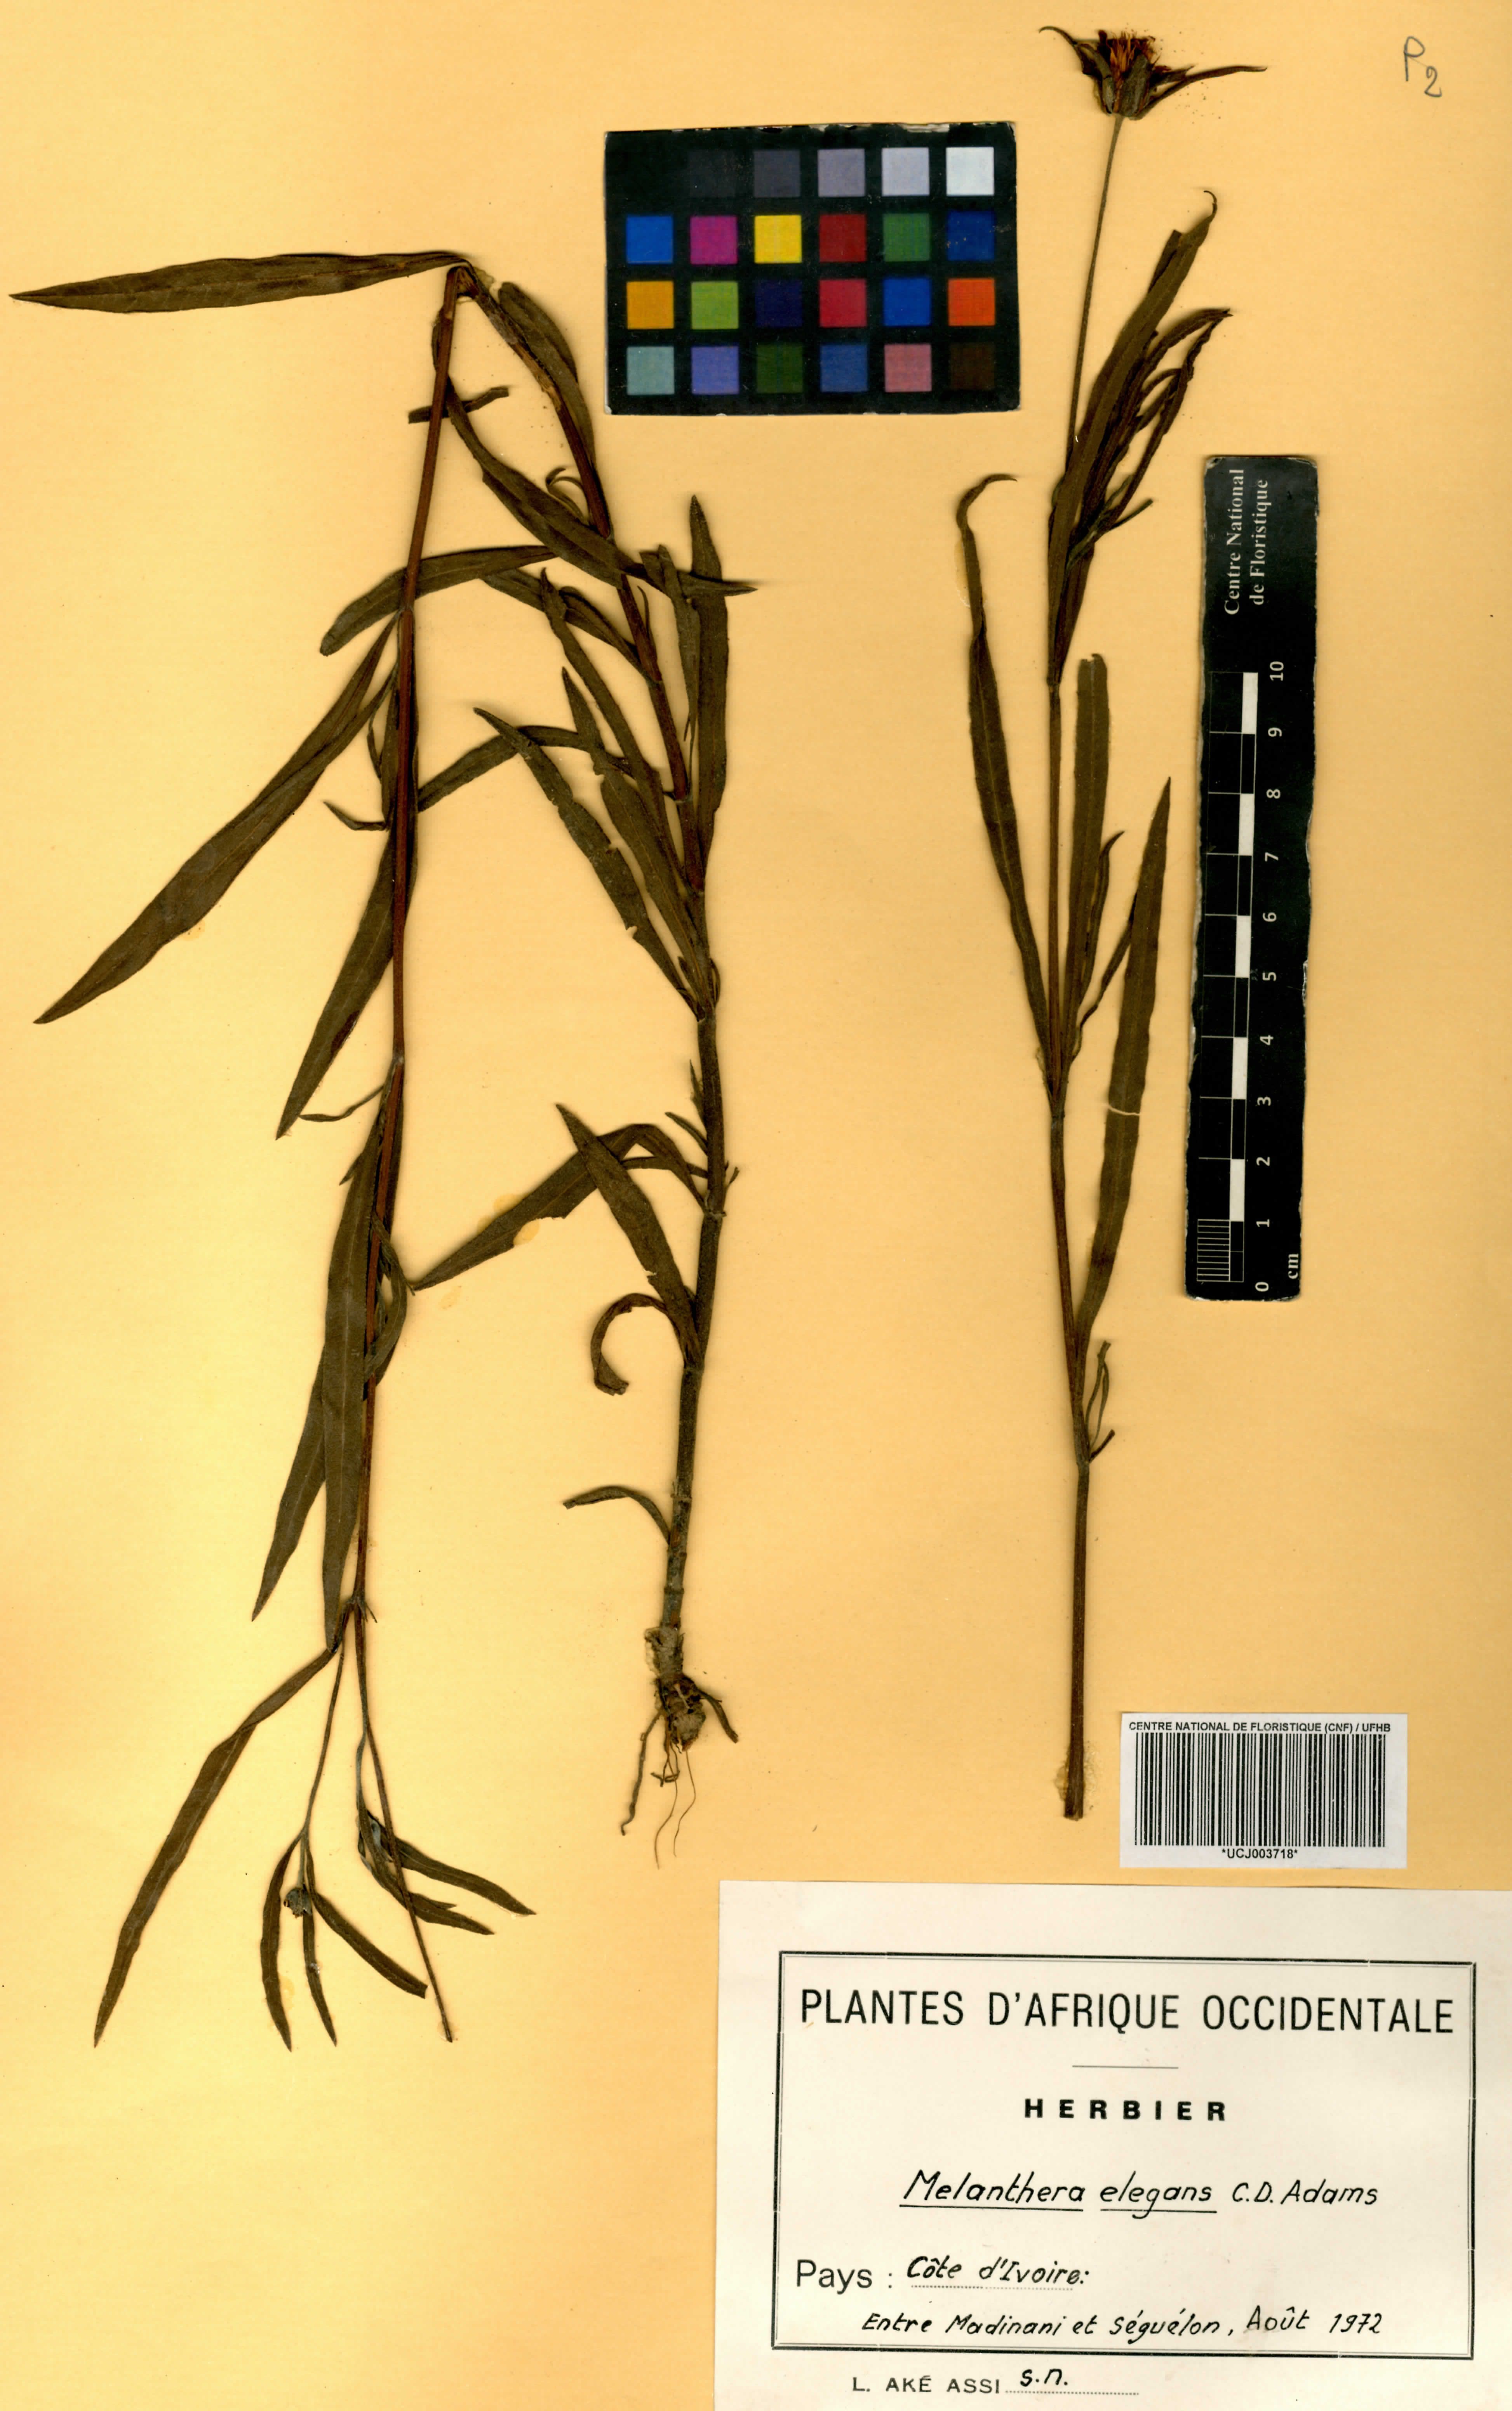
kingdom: Plantae
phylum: Tracheophyta
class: Magnoliopsida
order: Asterales
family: Asteraceae
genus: Aspilia
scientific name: Aspilia lisowskiana
